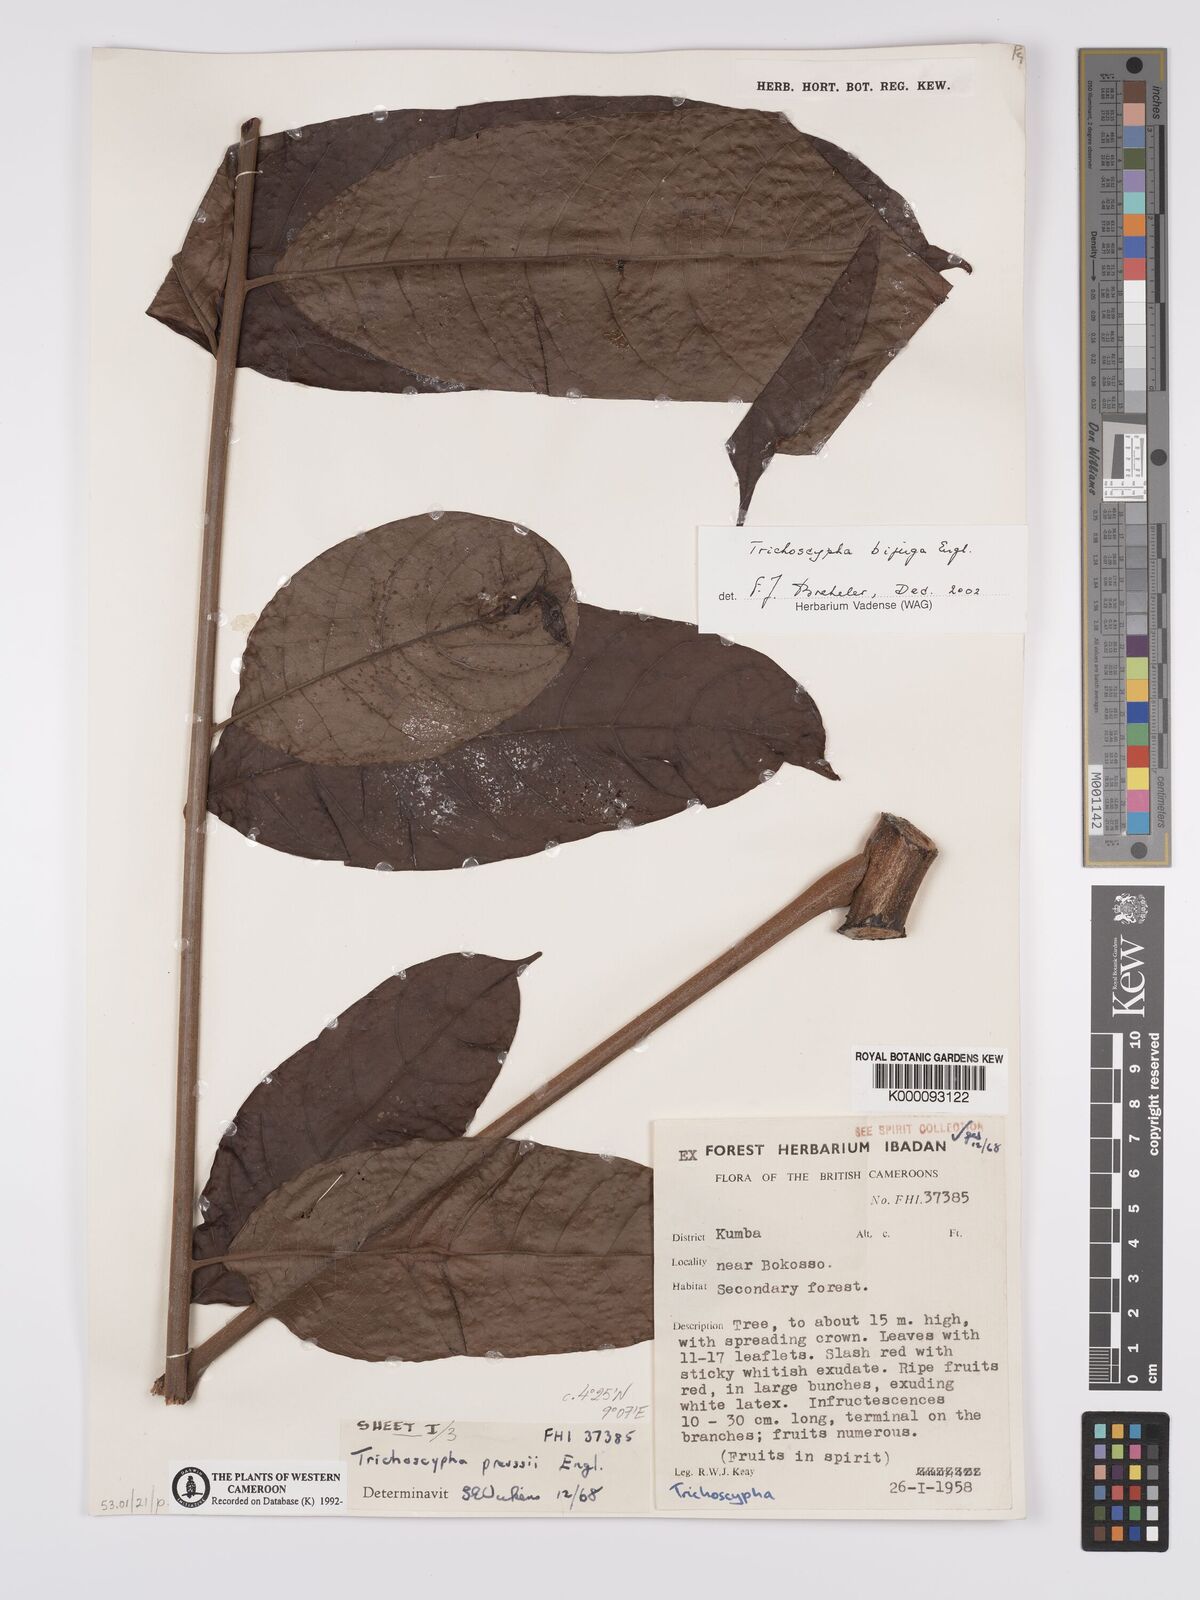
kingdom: Plantae
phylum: Tracheophyta
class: Magnoliopsida
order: Sapindales
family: Anacardiaceae
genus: Trichoscypha
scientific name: Trichoscypha bijuga
